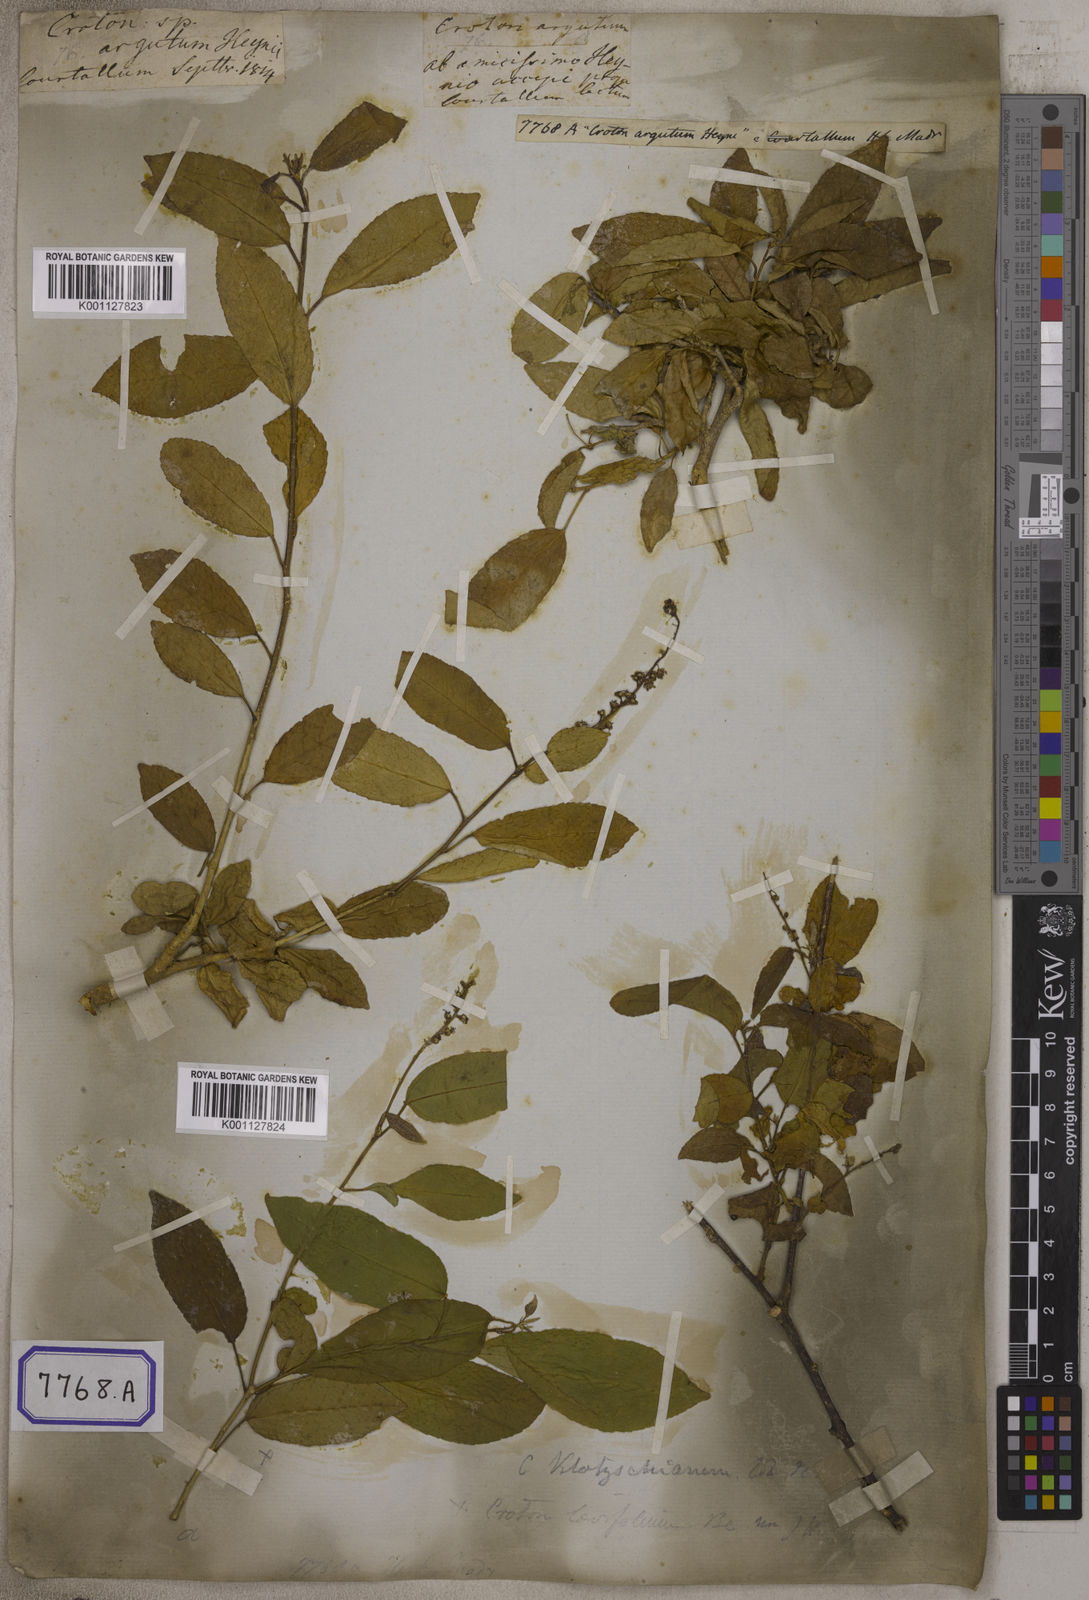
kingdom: Plantae
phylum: Tracheophyta
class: Magnoliopsida
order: Malpighiales
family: Euphorbiaceae
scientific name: Euphorbiaceae
